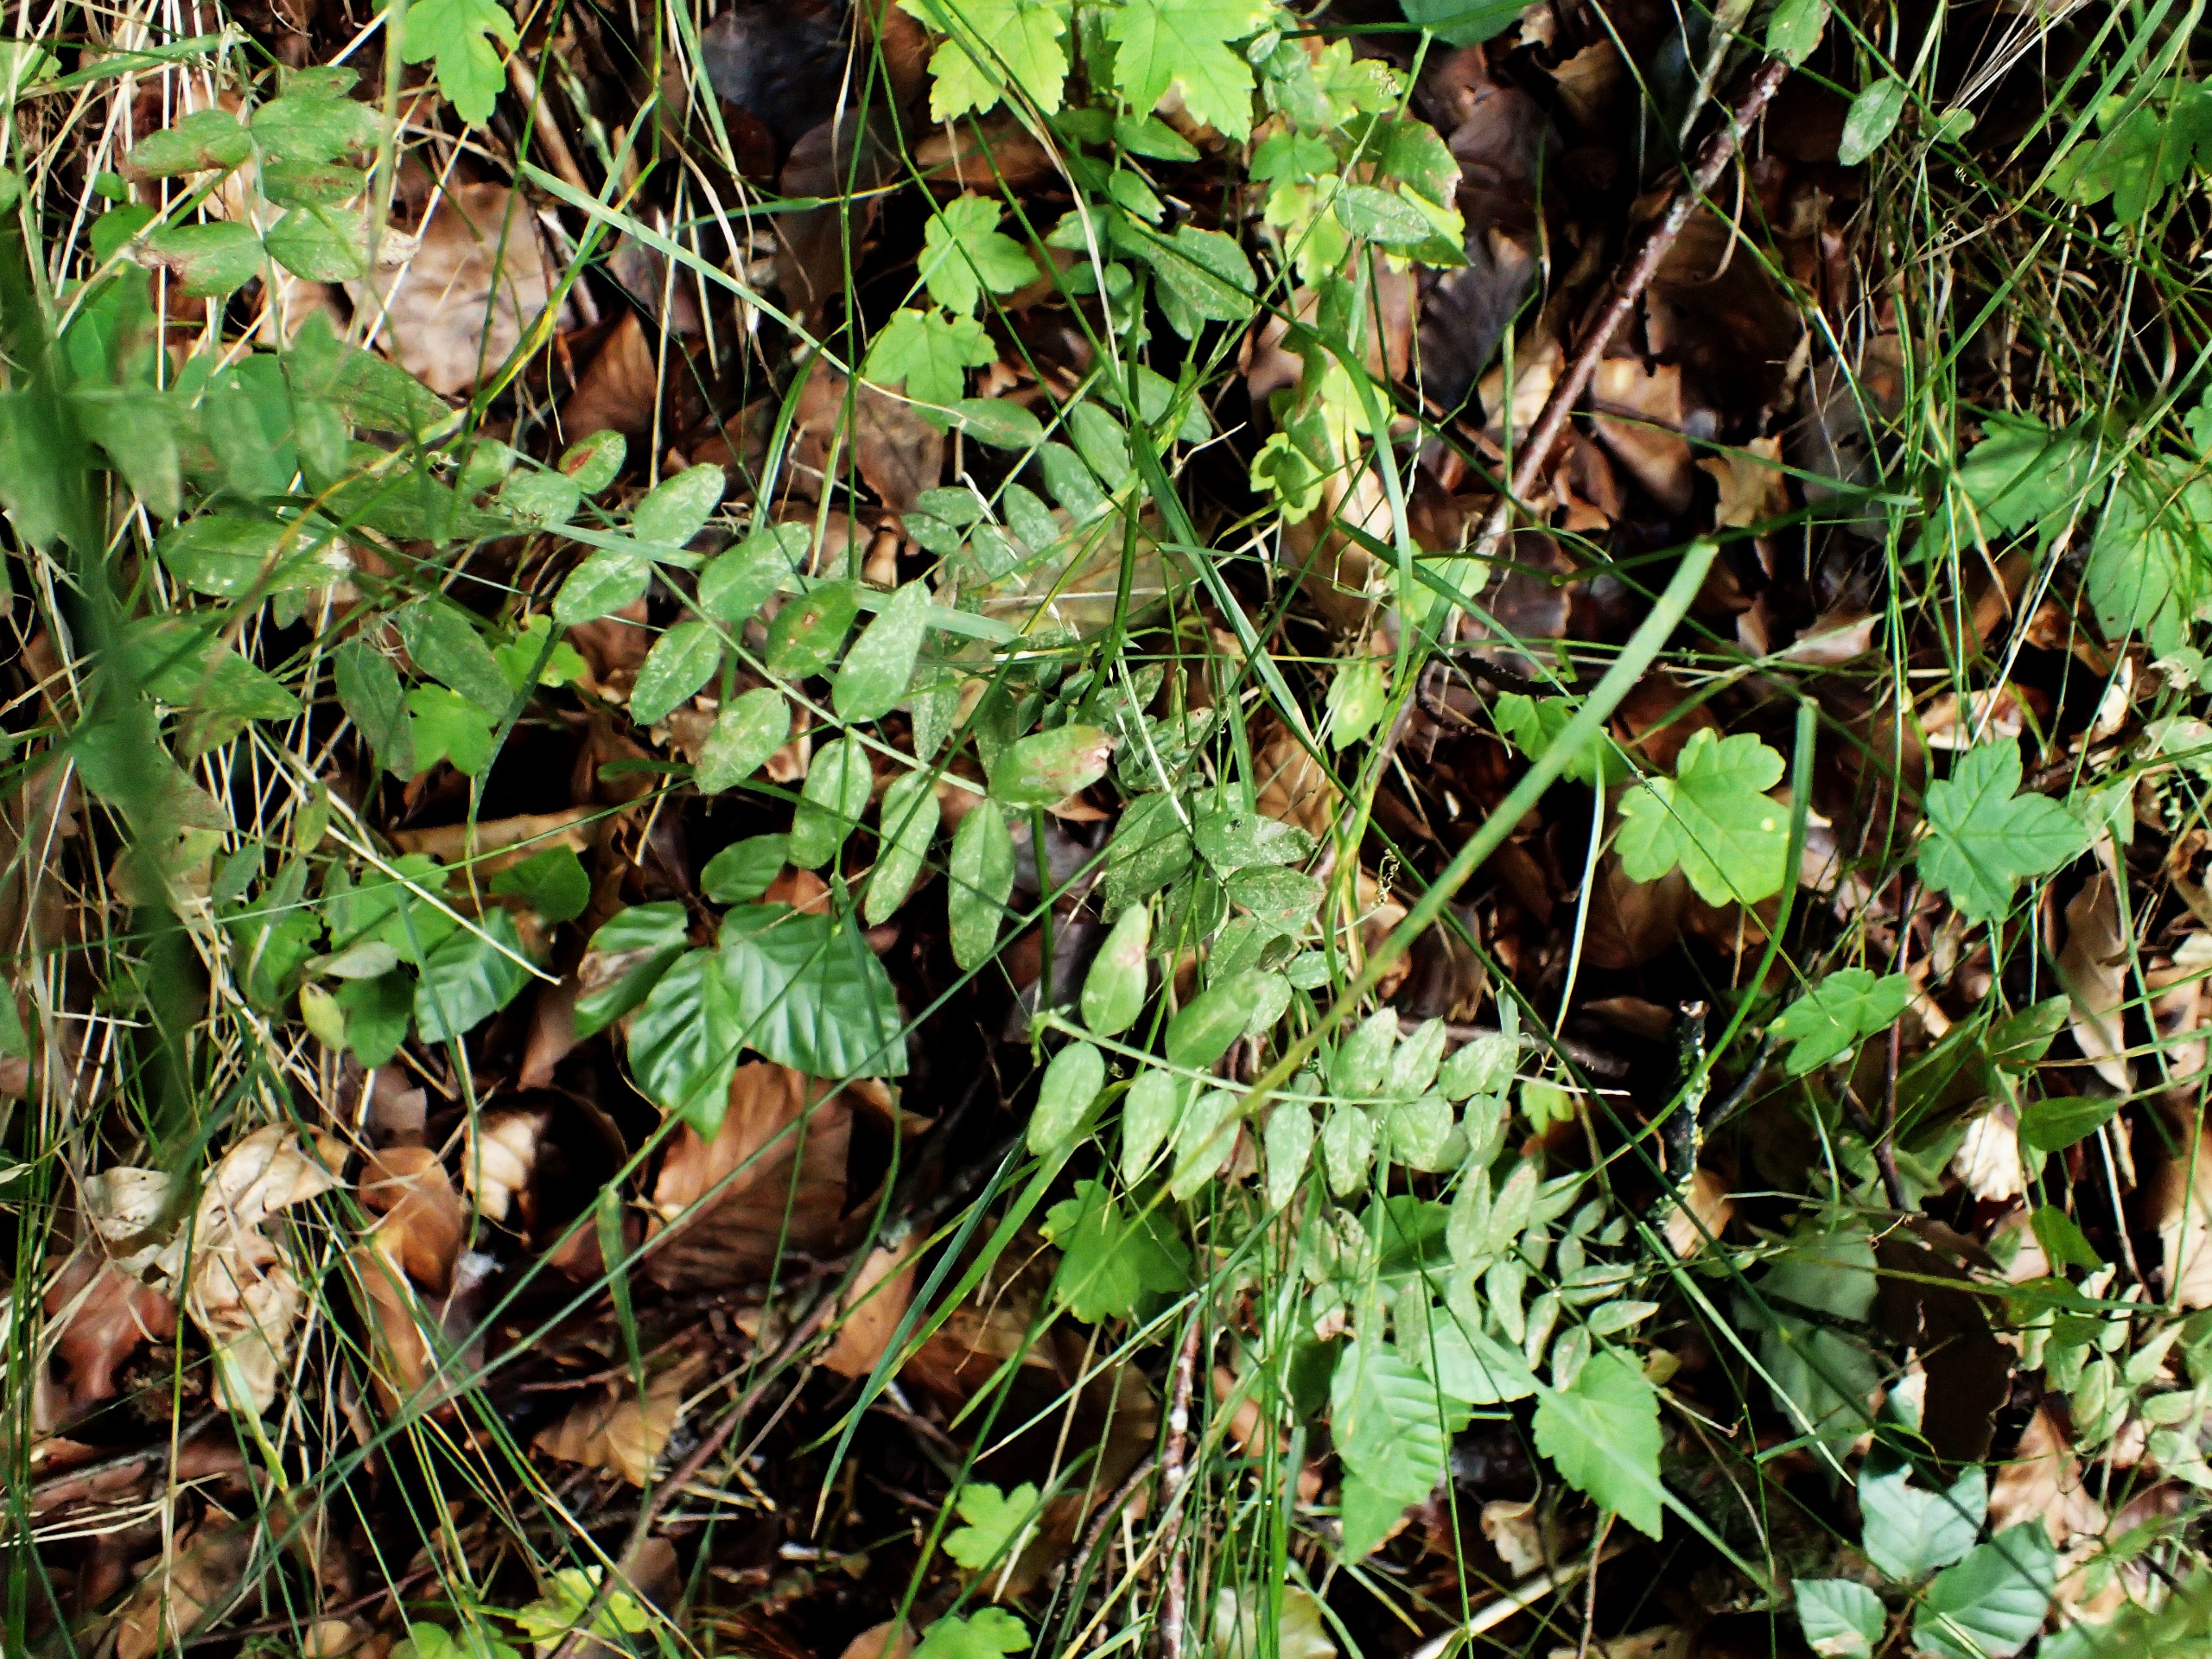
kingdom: Plantae
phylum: Tracheophyta
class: Magnoliopsida
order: Fabales
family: Fabaceae
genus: Vicia
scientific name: Vicia sepium
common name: Gærde-vikke
